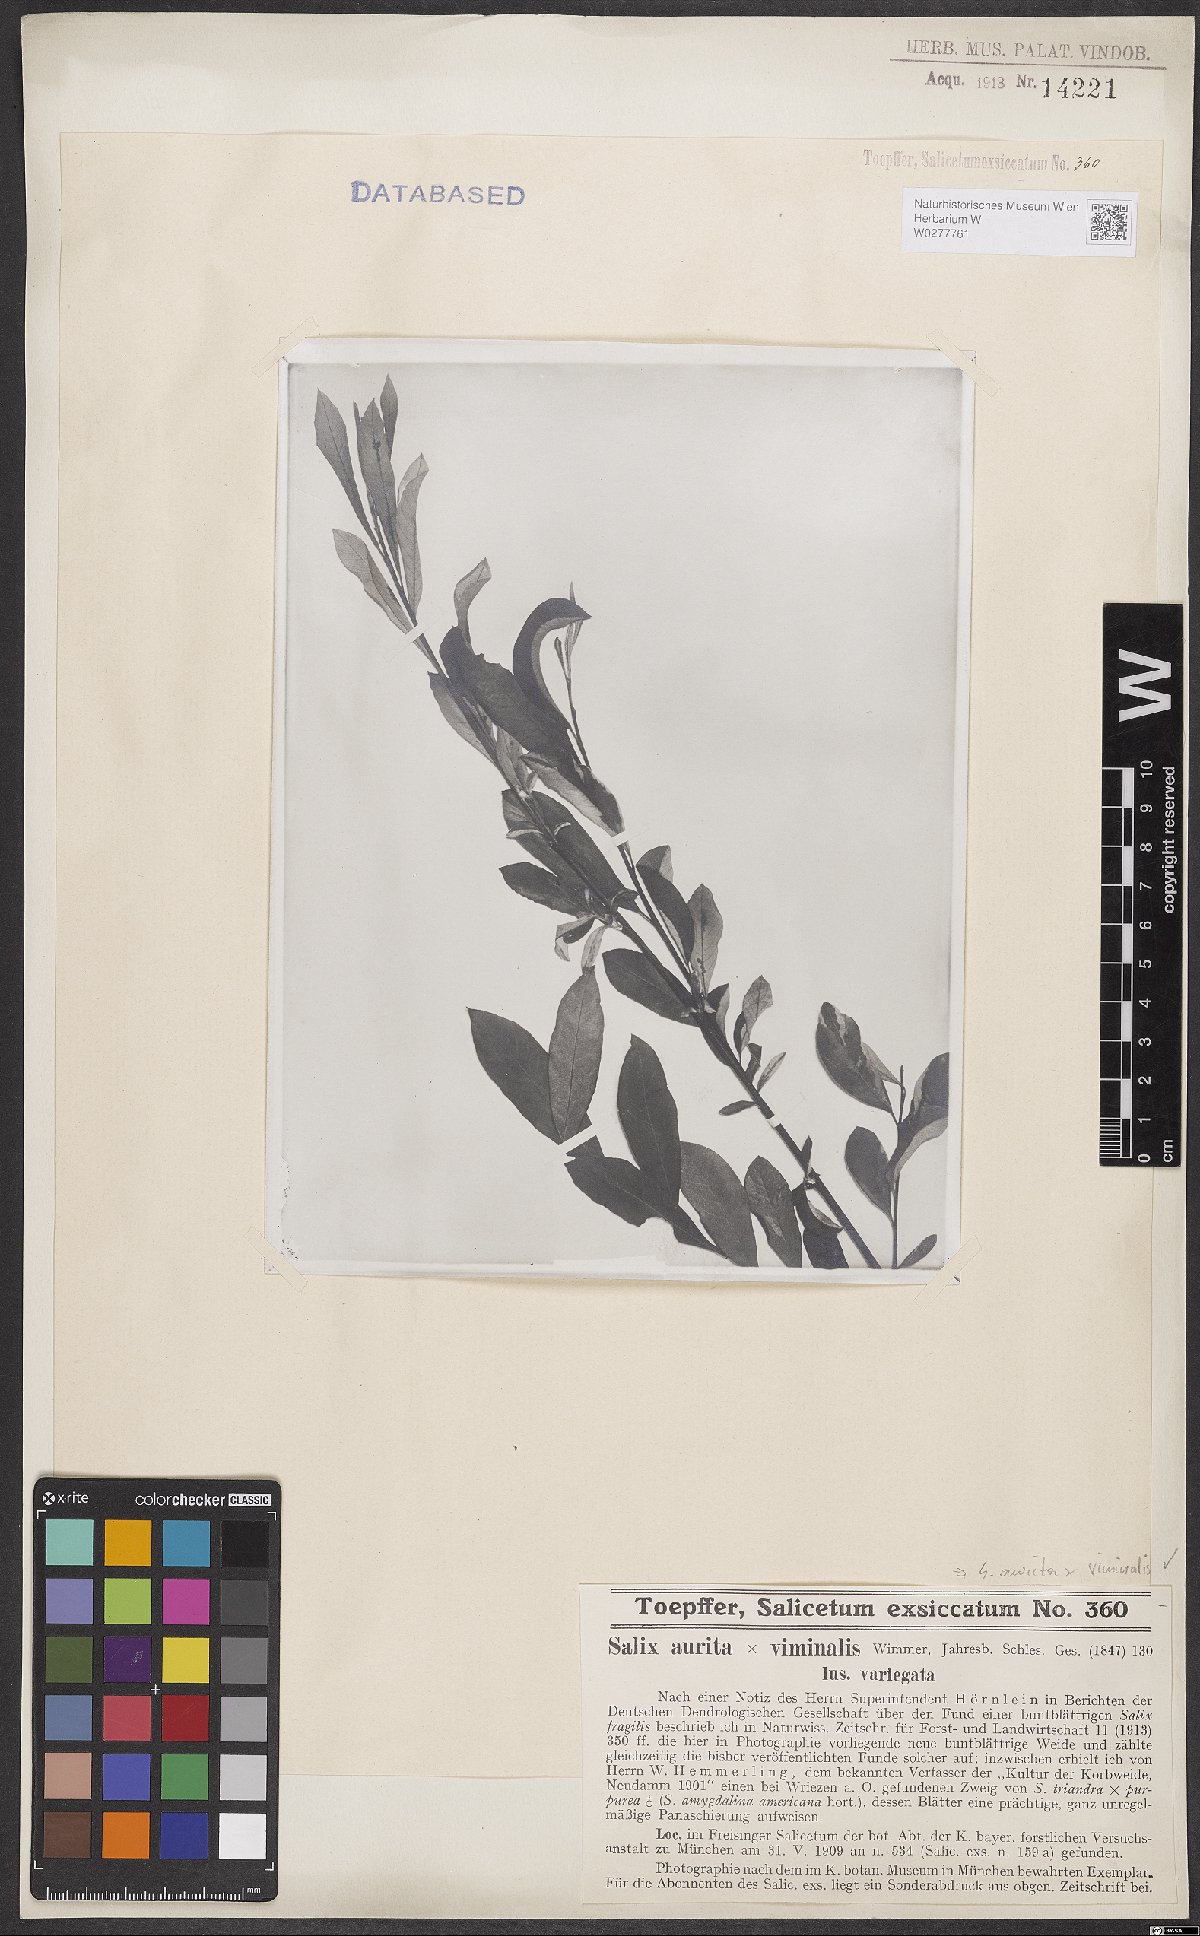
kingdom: Plantae
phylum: Tracheophyta
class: Magnoliopsida
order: Malpighiales
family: Salicaceae
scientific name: Salicaceae
